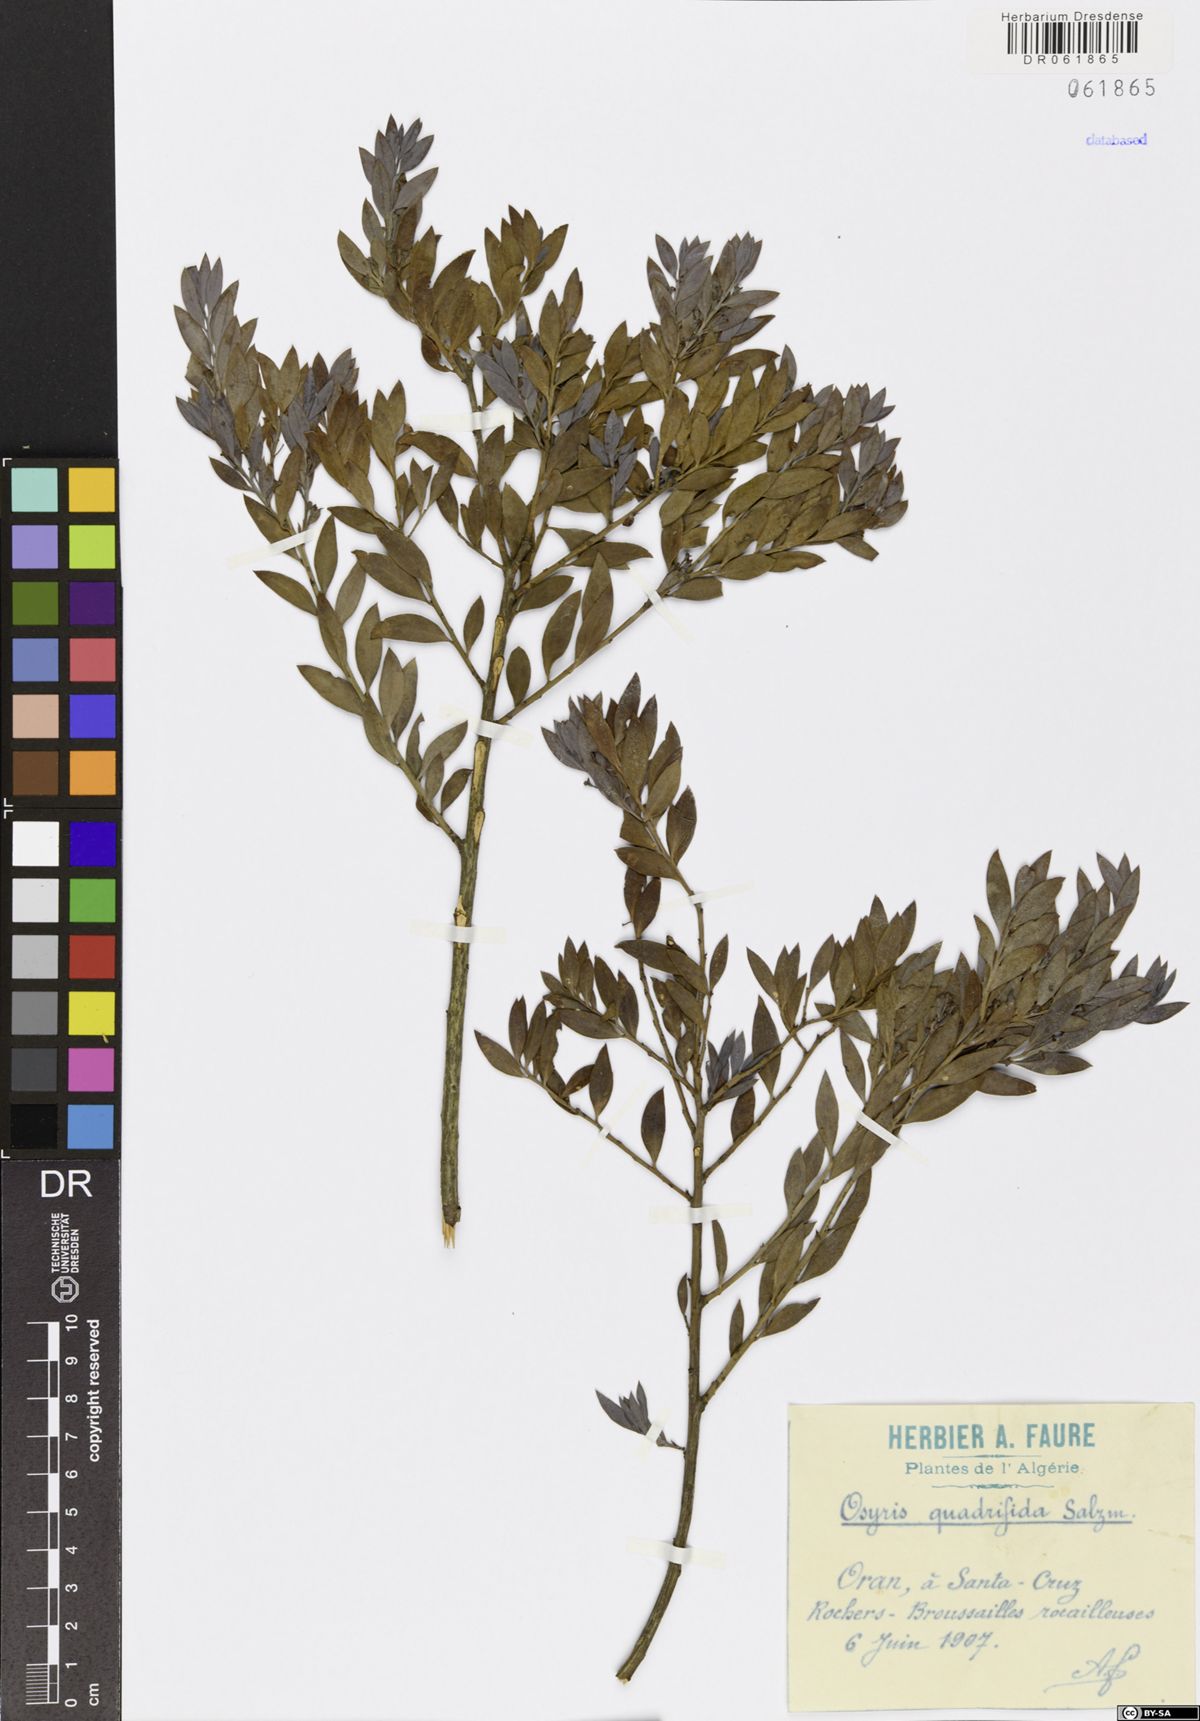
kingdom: Plantae
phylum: Tracheophyta
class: Magnoliopsida
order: Santalales
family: Santalaceae
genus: Osyris
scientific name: Osyris quadripartita
